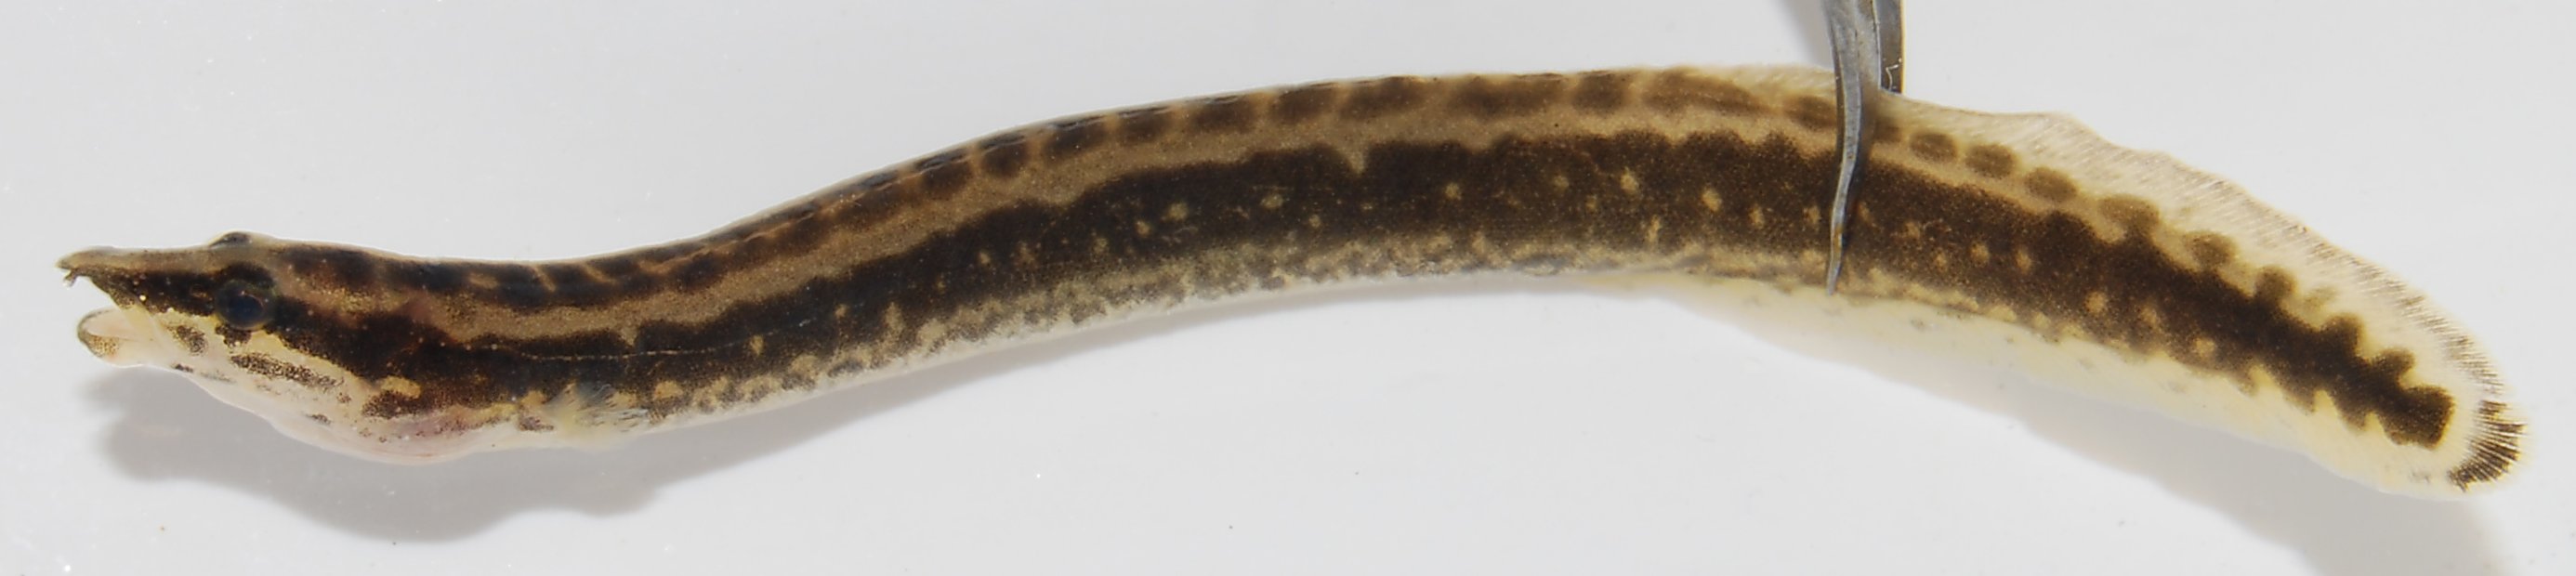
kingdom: Animalia
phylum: Chordata
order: Synbranchiformes
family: Mastacembelidae
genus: Mastacembelus
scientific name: Mastacembelus frenatus
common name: East african spiny eel
